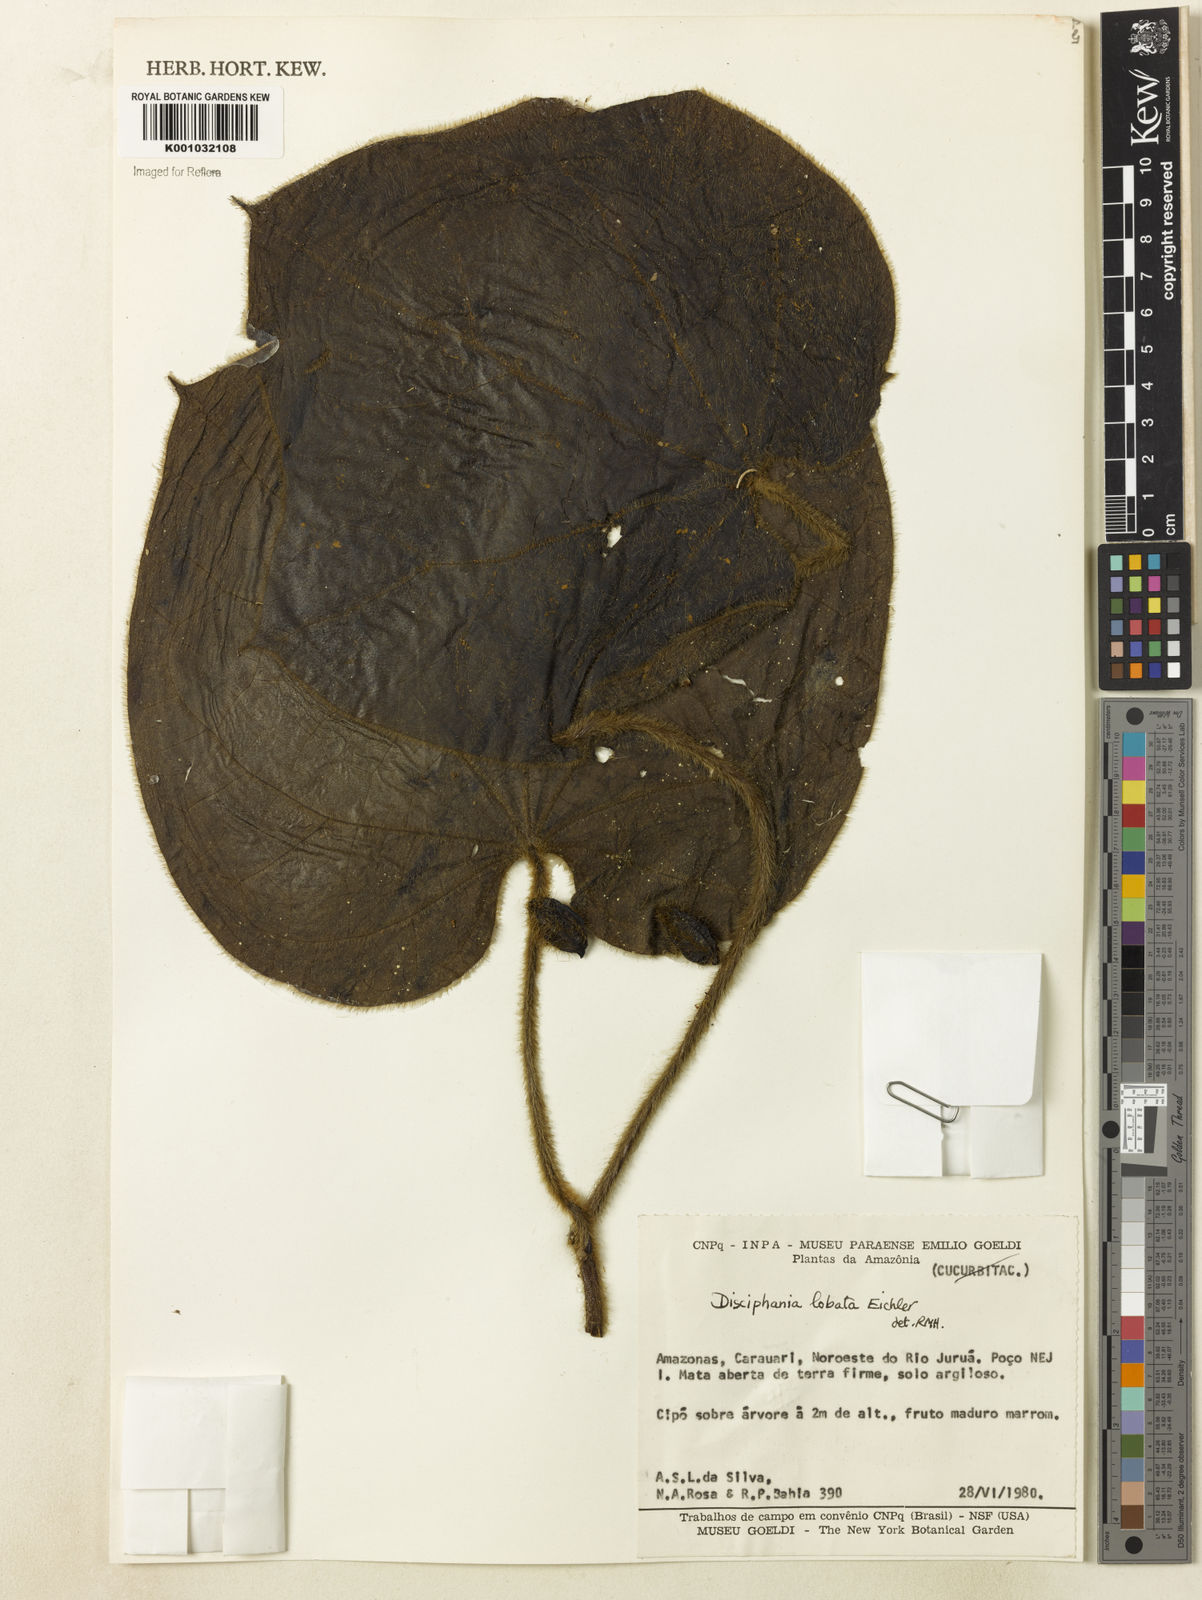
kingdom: Plantae
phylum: Tracheophyta
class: Magnoliopsida
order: Ranunculales
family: Menispermaceae
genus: Disciphania
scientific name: Disciphania lobata
